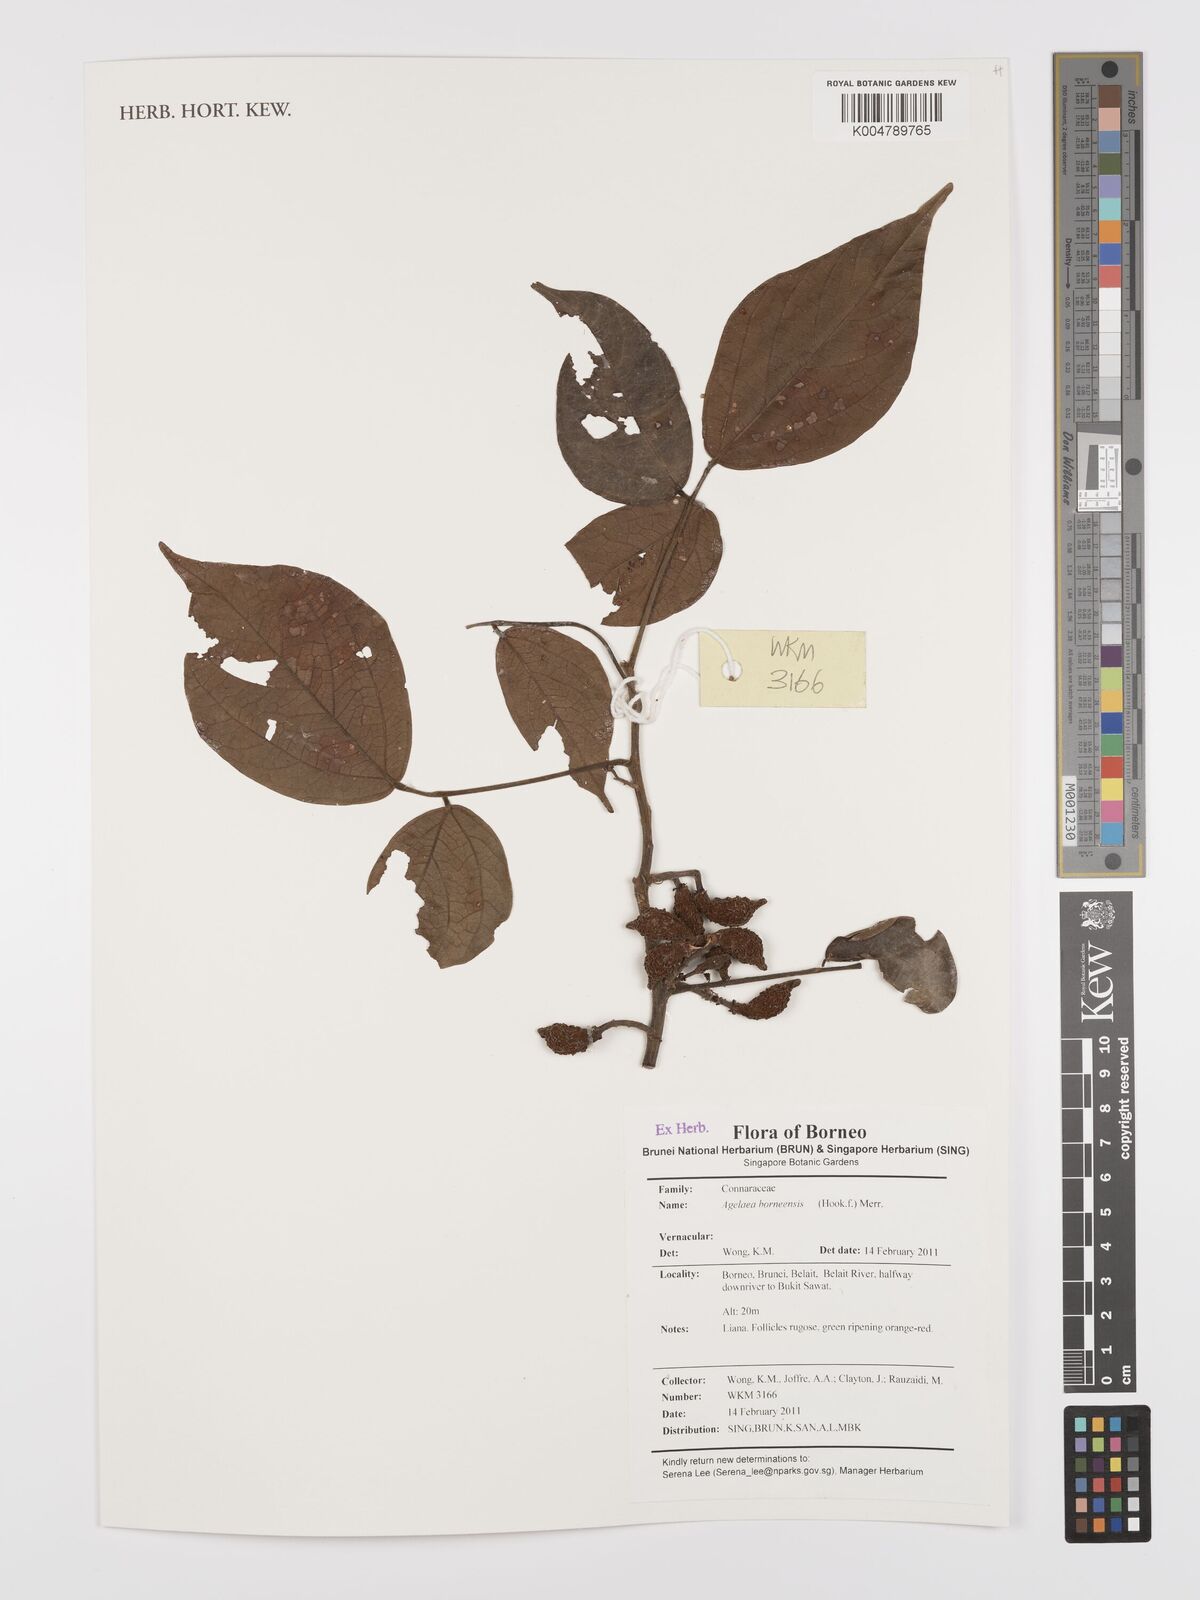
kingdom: Plantae
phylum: Tracheophyta
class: Magnoliopsida
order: Oxalidales
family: Connaraceae
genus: Agelaea
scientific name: Agelaea borneensis
